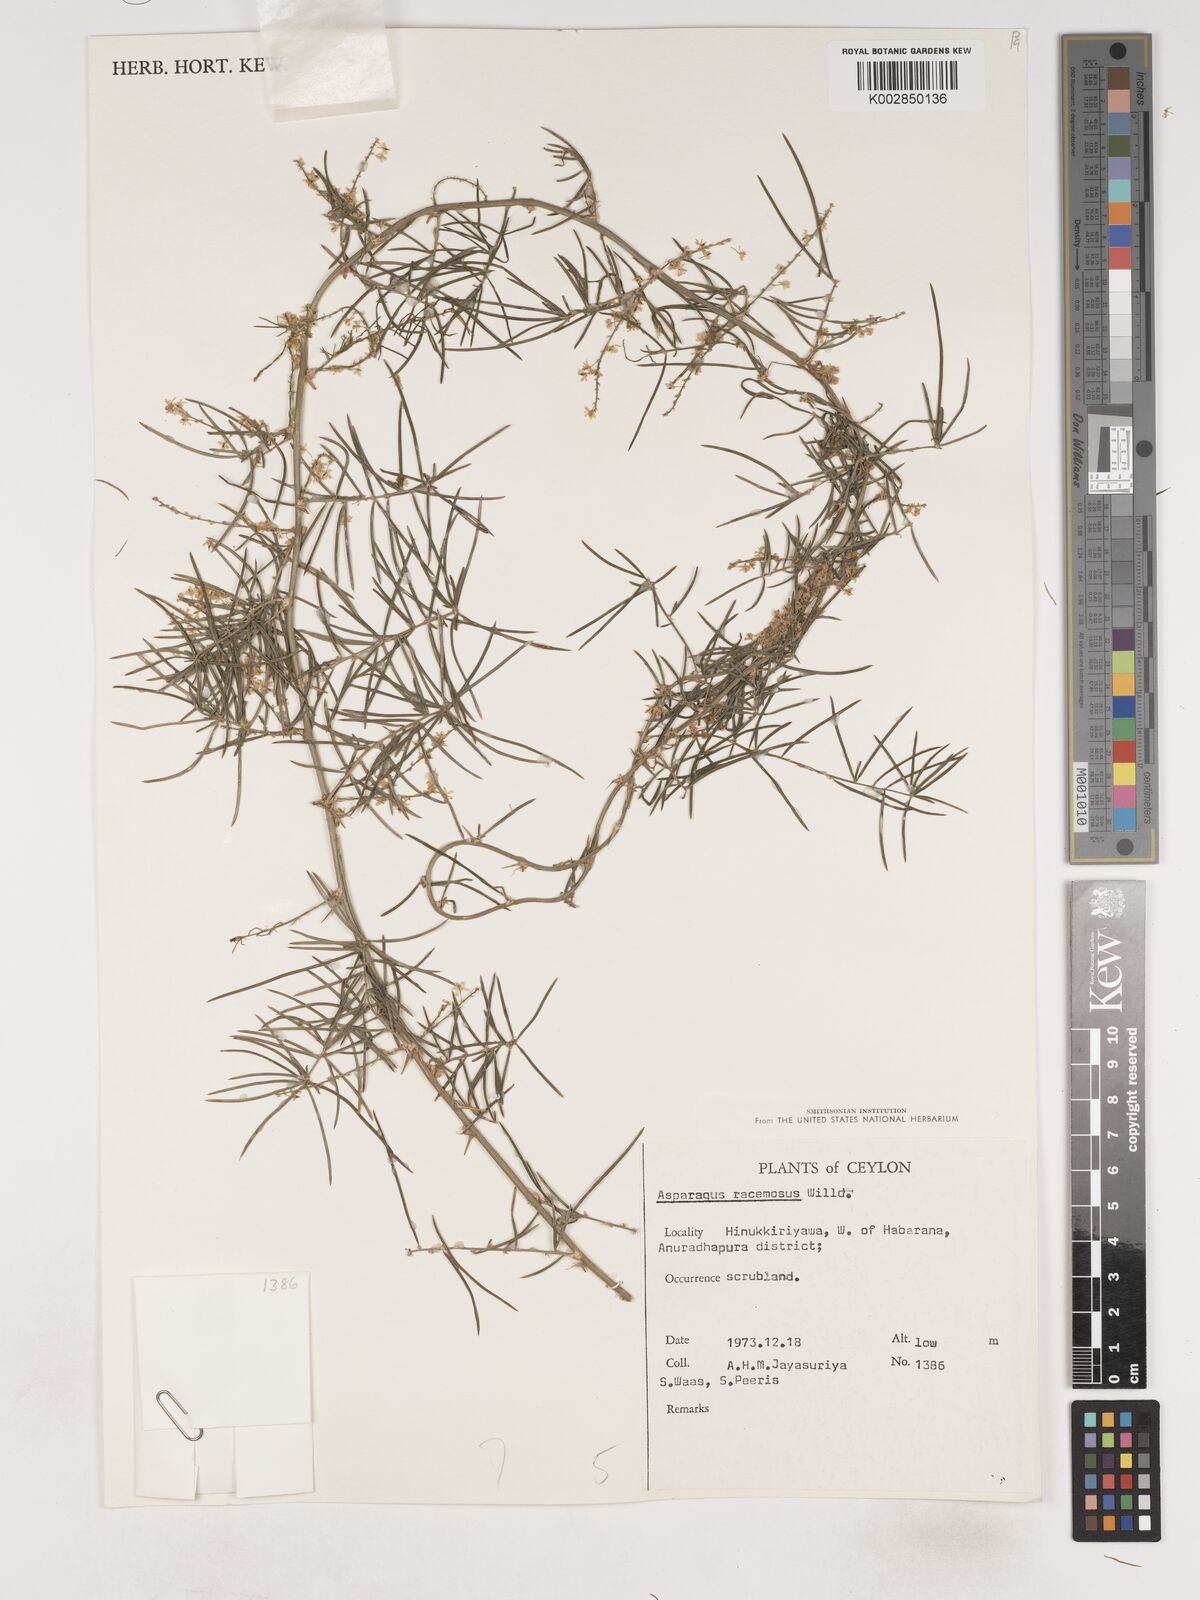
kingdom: Plantae
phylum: Tracheophyta
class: Liliopsida
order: Asparagales
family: Asparagaceae
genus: Asparagus
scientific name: Asparagus racemosus
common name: Asparagus-fern
